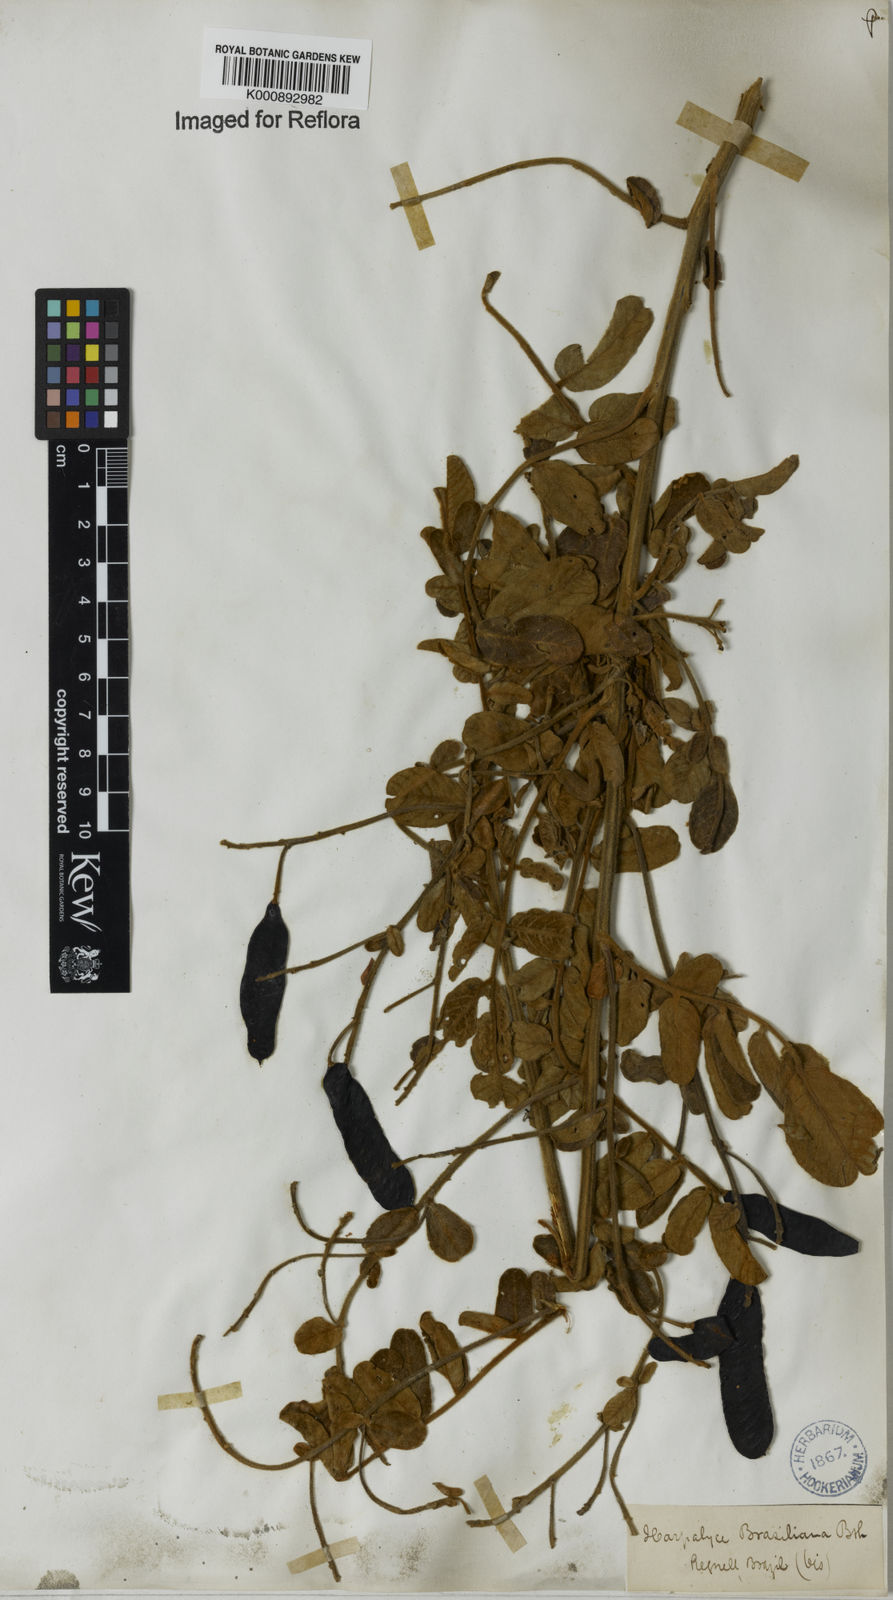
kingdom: Plantae
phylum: Tracheophyta
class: Magnoliopsida
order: Fabales
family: Fabaceae
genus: Harpalyce
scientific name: Harpalyce brasiliana
